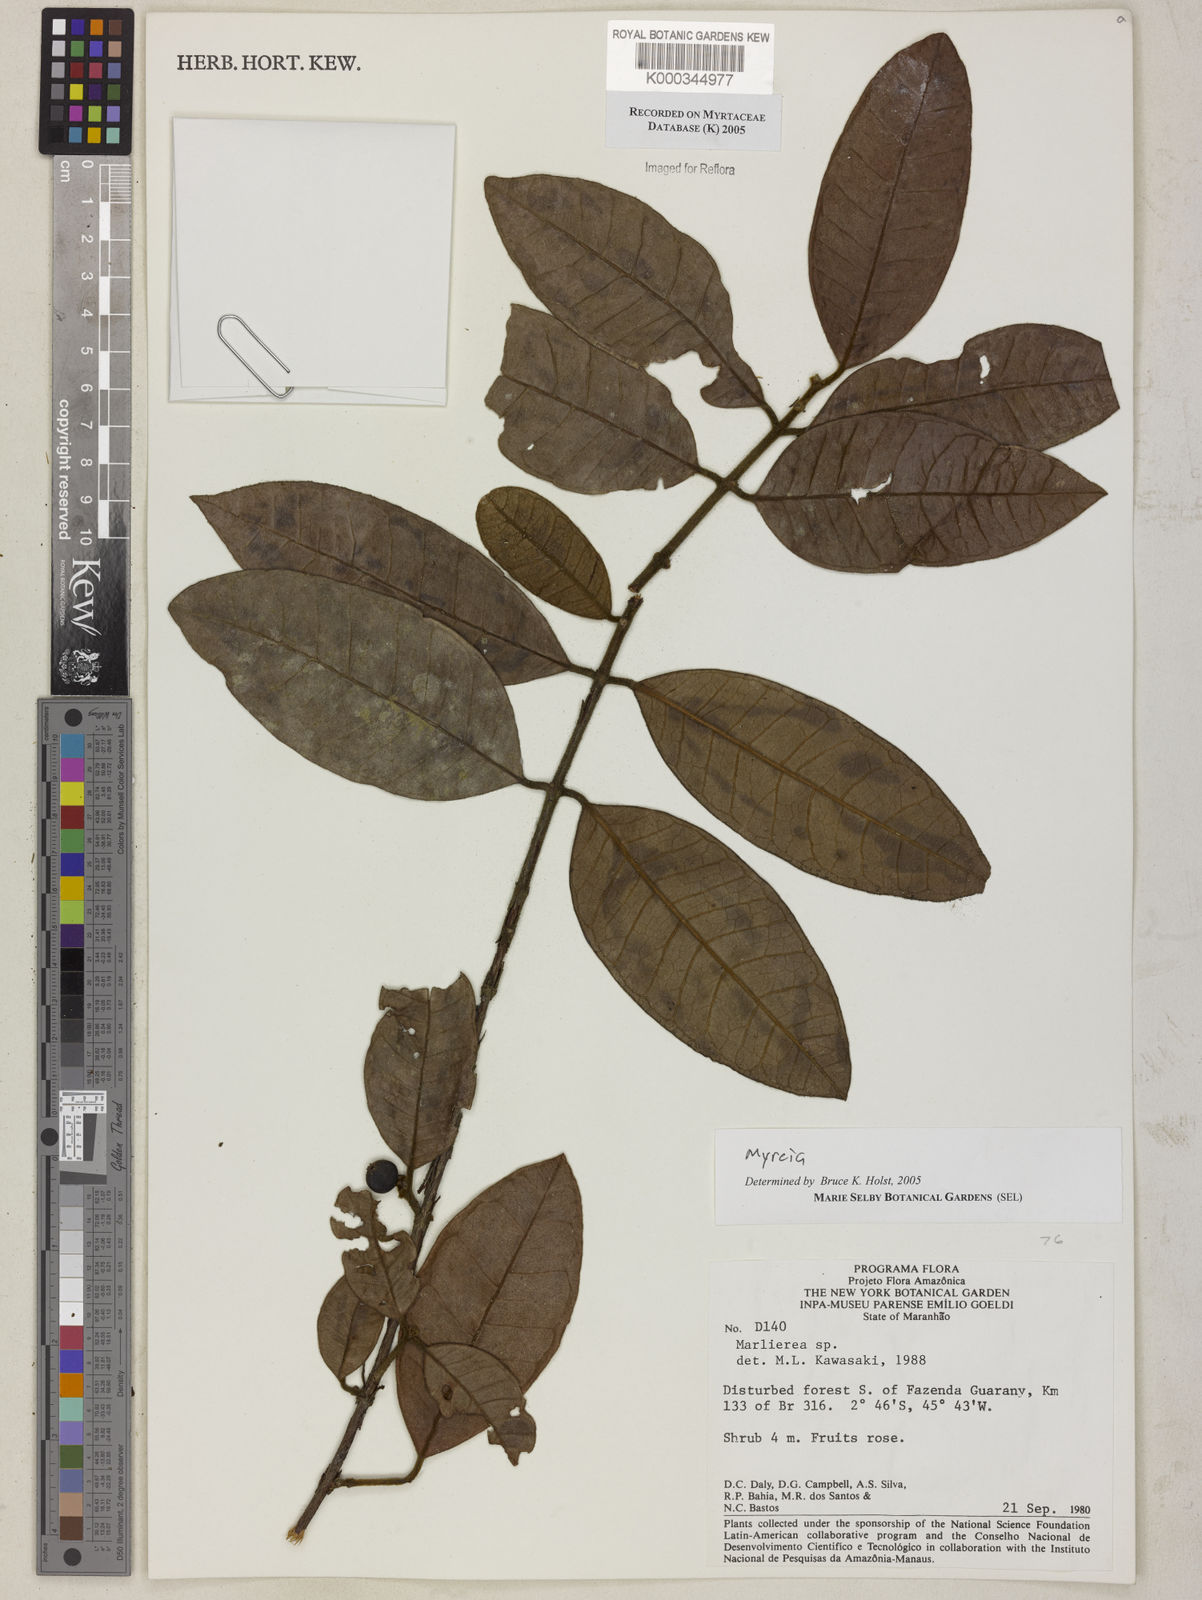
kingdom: Plantae
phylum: Tracheophyta
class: Magnoliopsida
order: Myrtales
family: Myrtaceae
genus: Myrcia
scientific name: Myrcia
